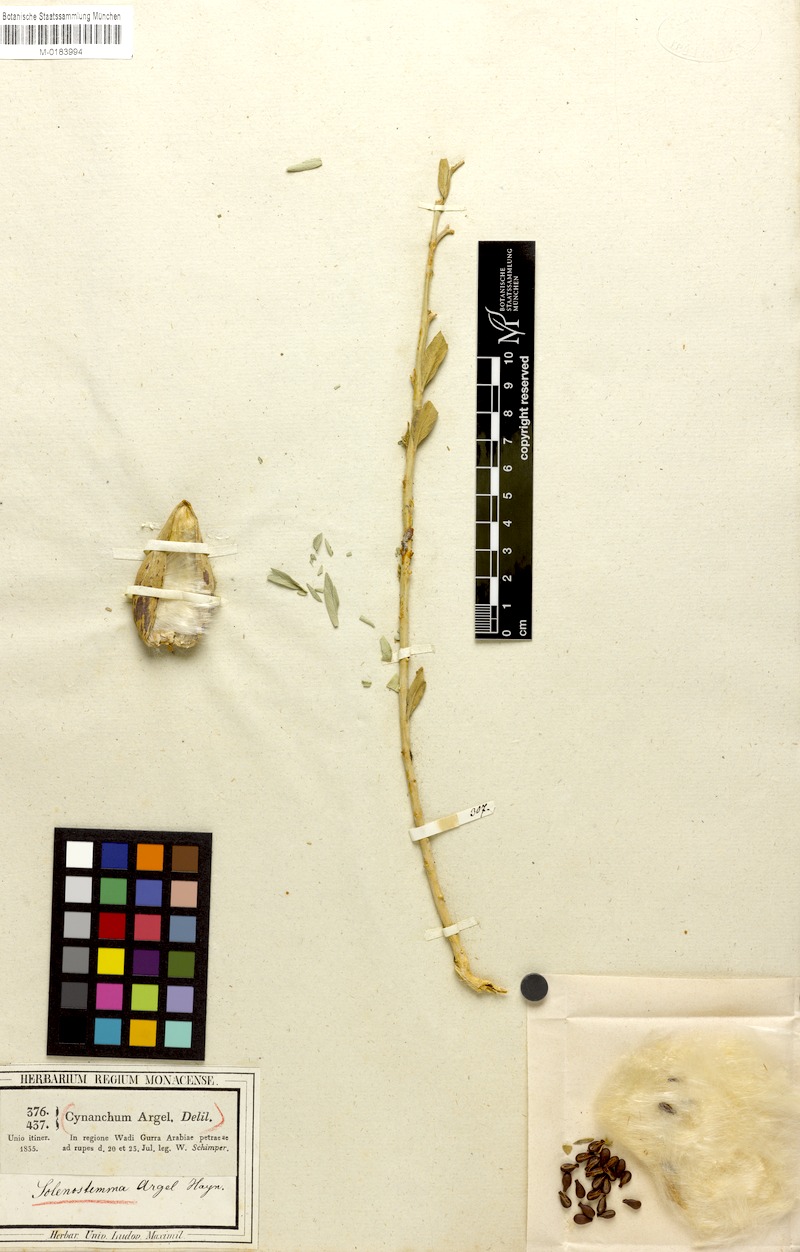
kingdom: Plantae
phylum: Tracheophyta
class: Magnoliopsida
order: Gentianales
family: Apocynaceae
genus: Solenostemma
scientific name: Solenostemma oleifolium
